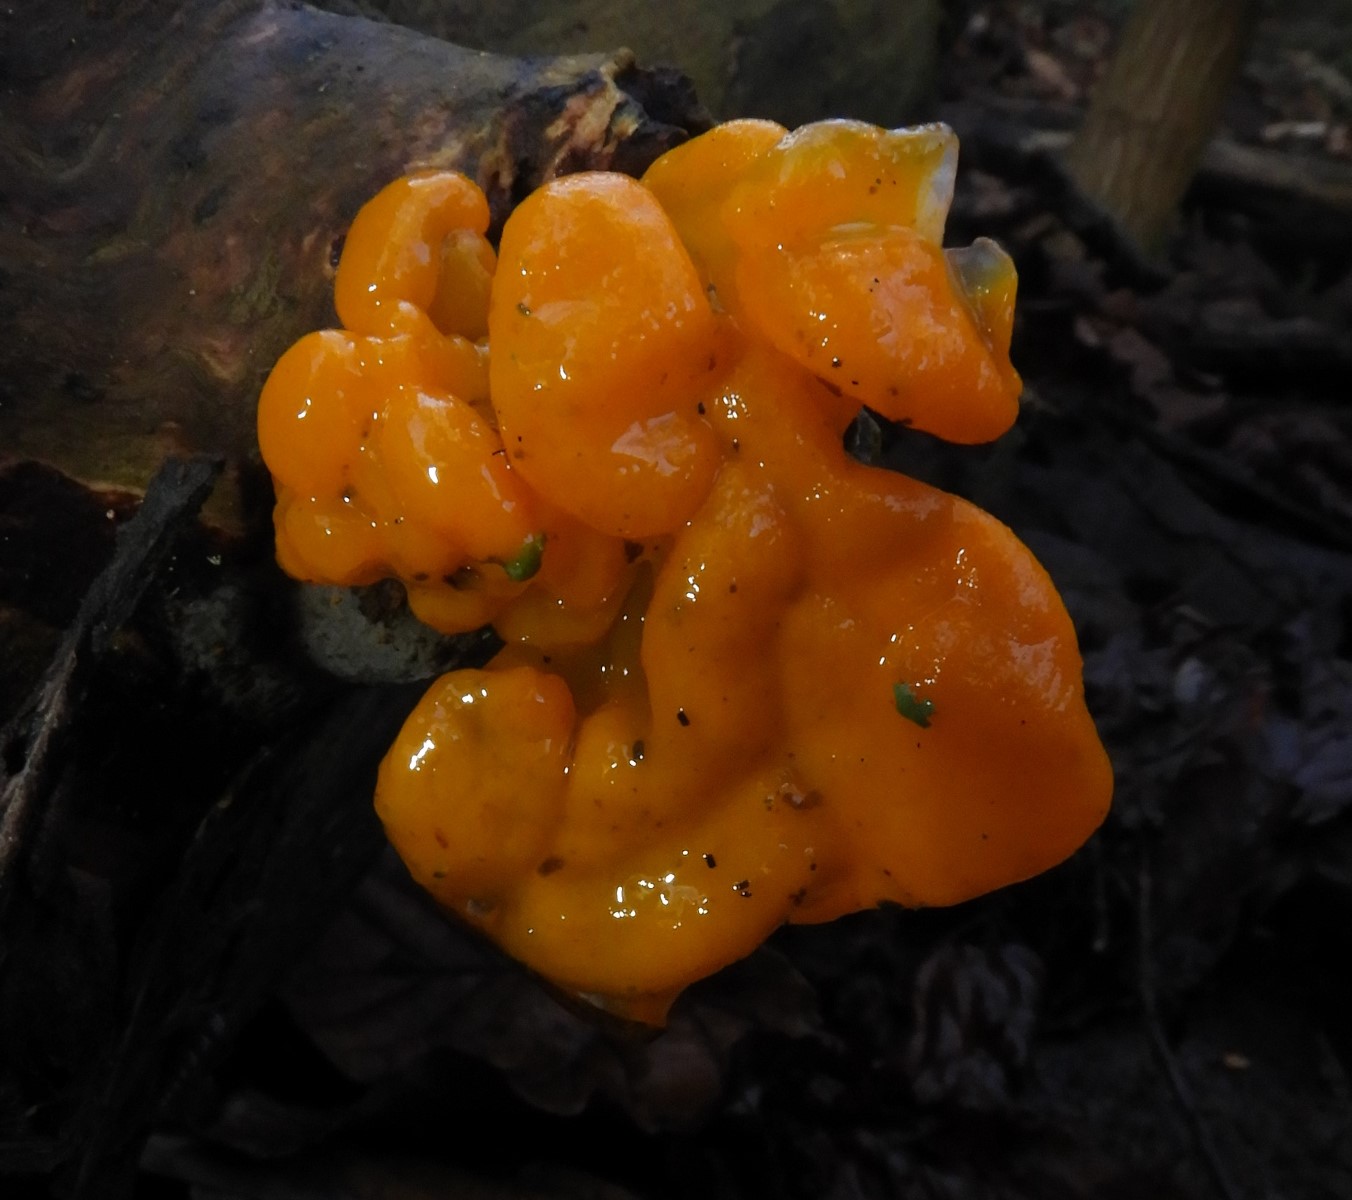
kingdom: Fungi
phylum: Basidiomycota
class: Tremellomycetes
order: Tremellales
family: Tremellaceae
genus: Tremella
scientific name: Tremella mesenterica
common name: gul bævresvamp
